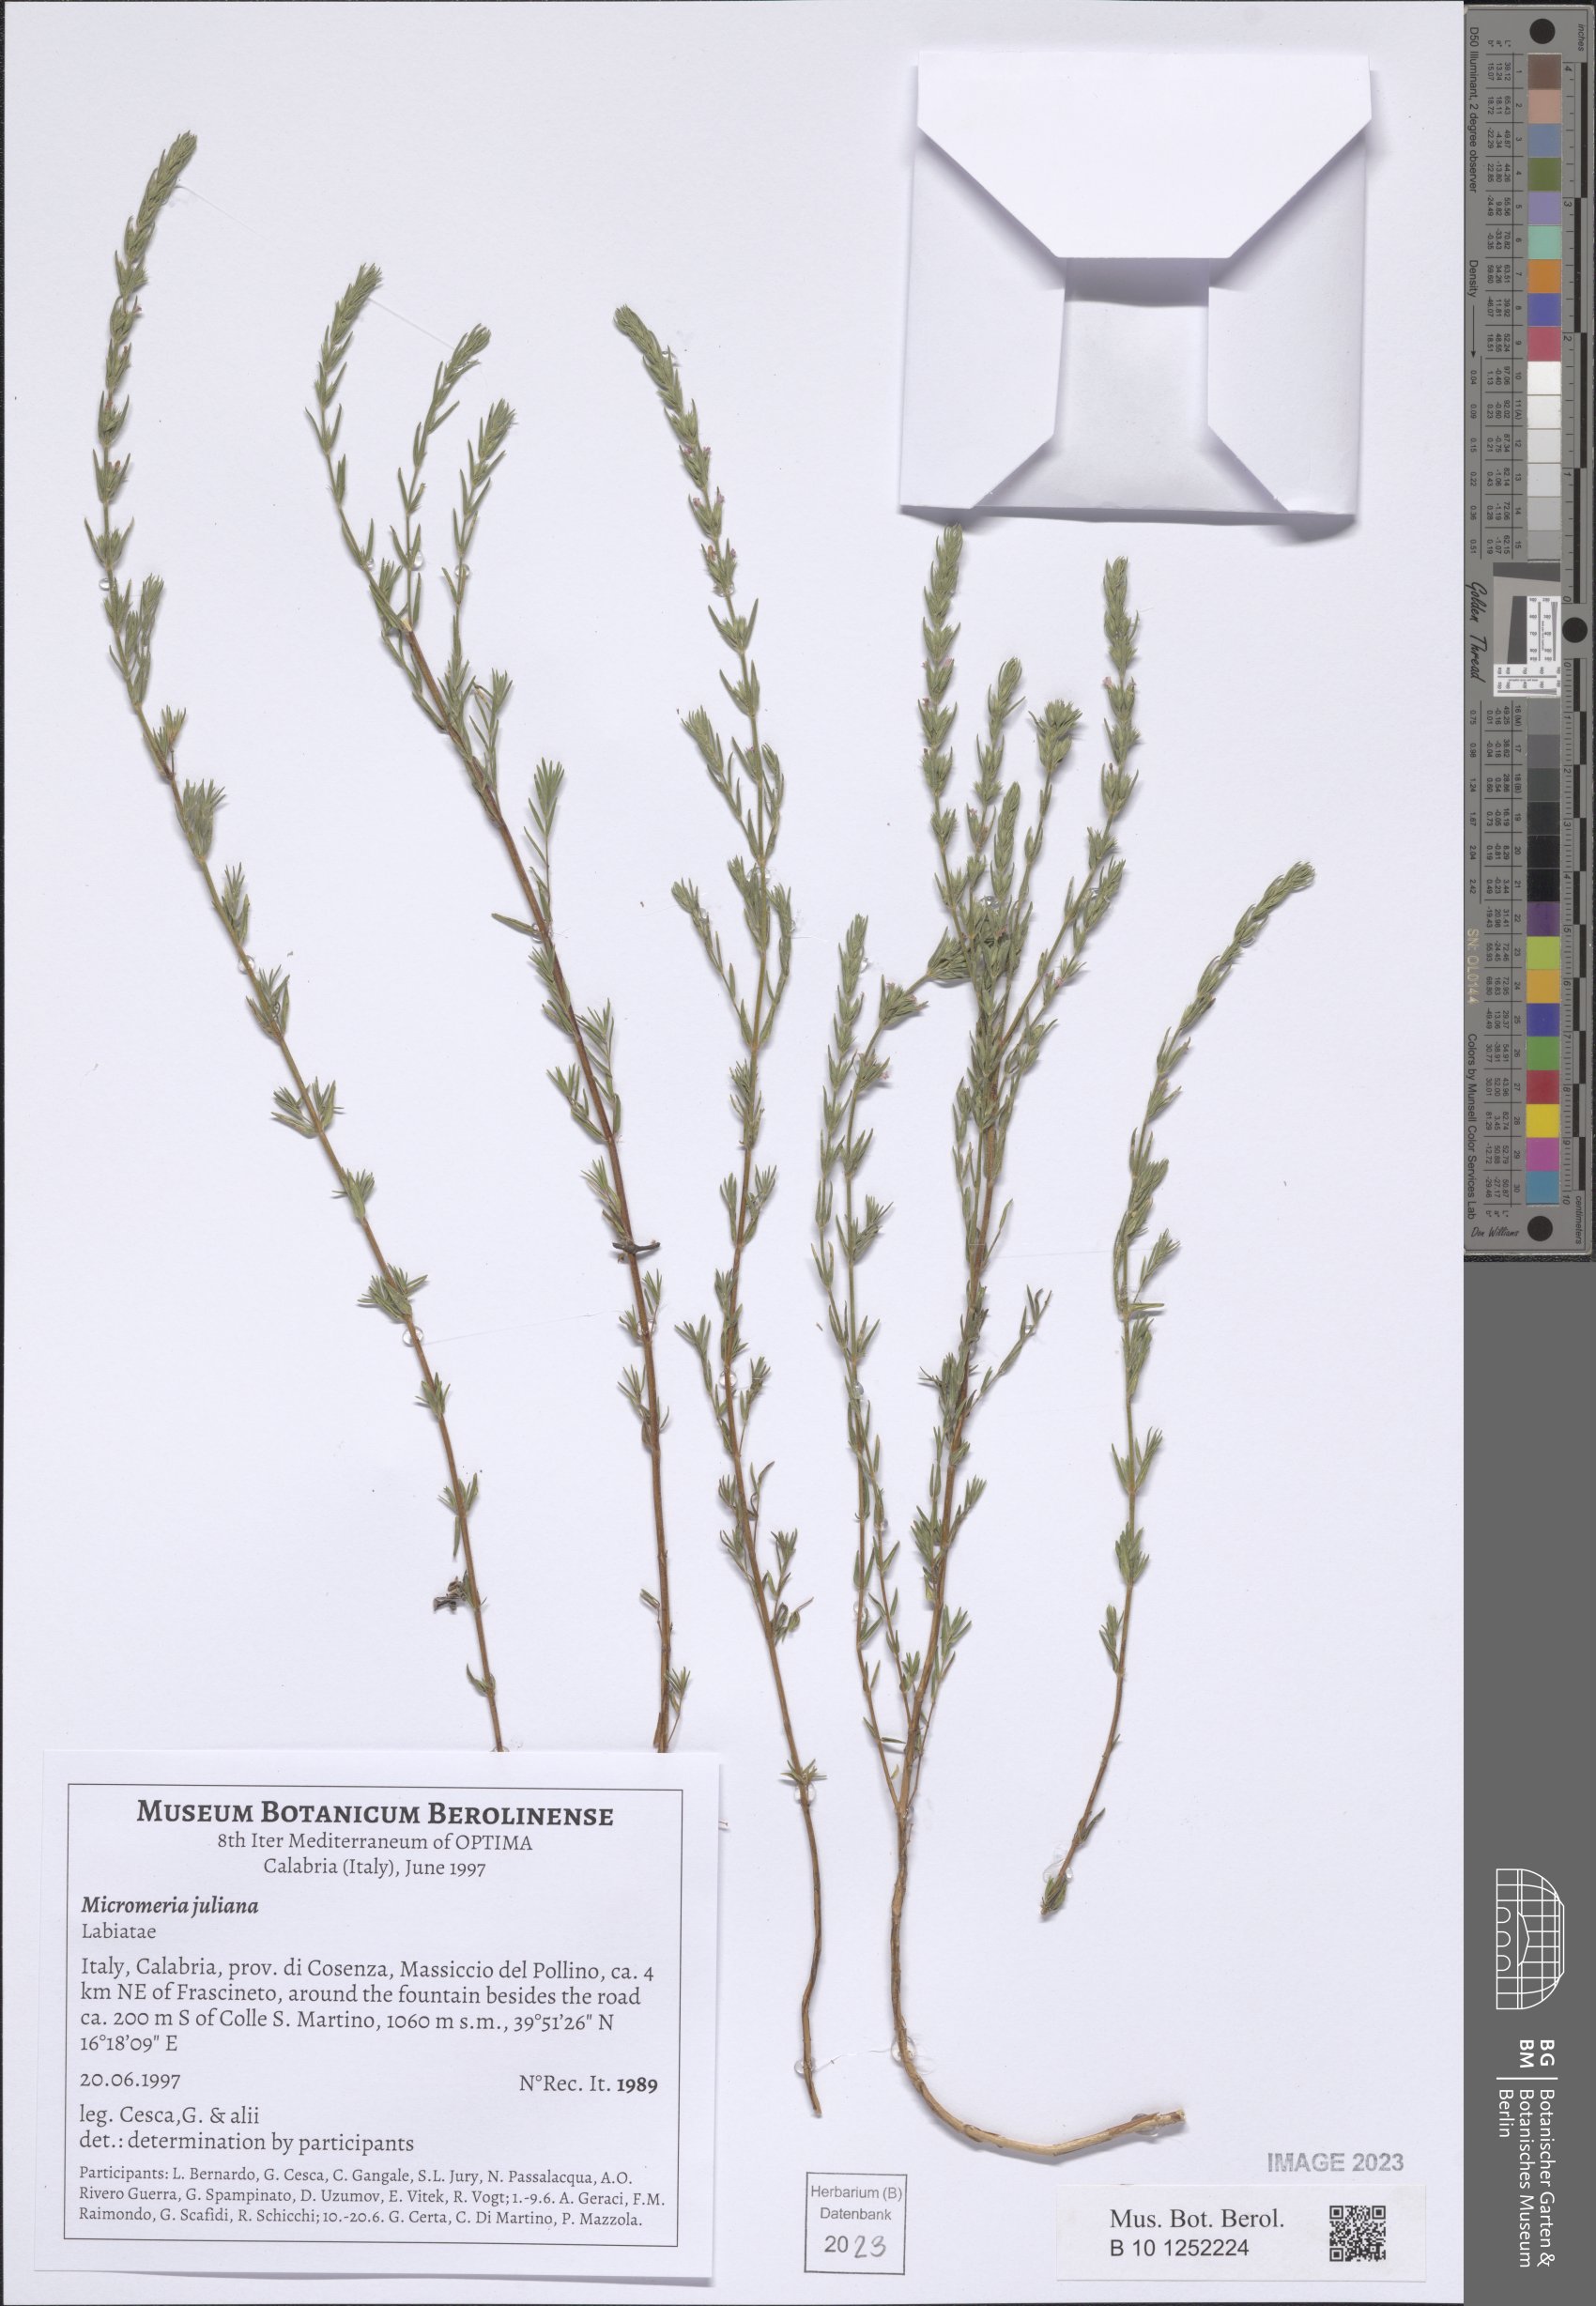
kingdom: Plantae
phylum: Tracheophyta
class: Magnoliopsida
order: Lamiales
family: Lamiaceae
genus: Micromeria
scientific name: Micromeria juliana
